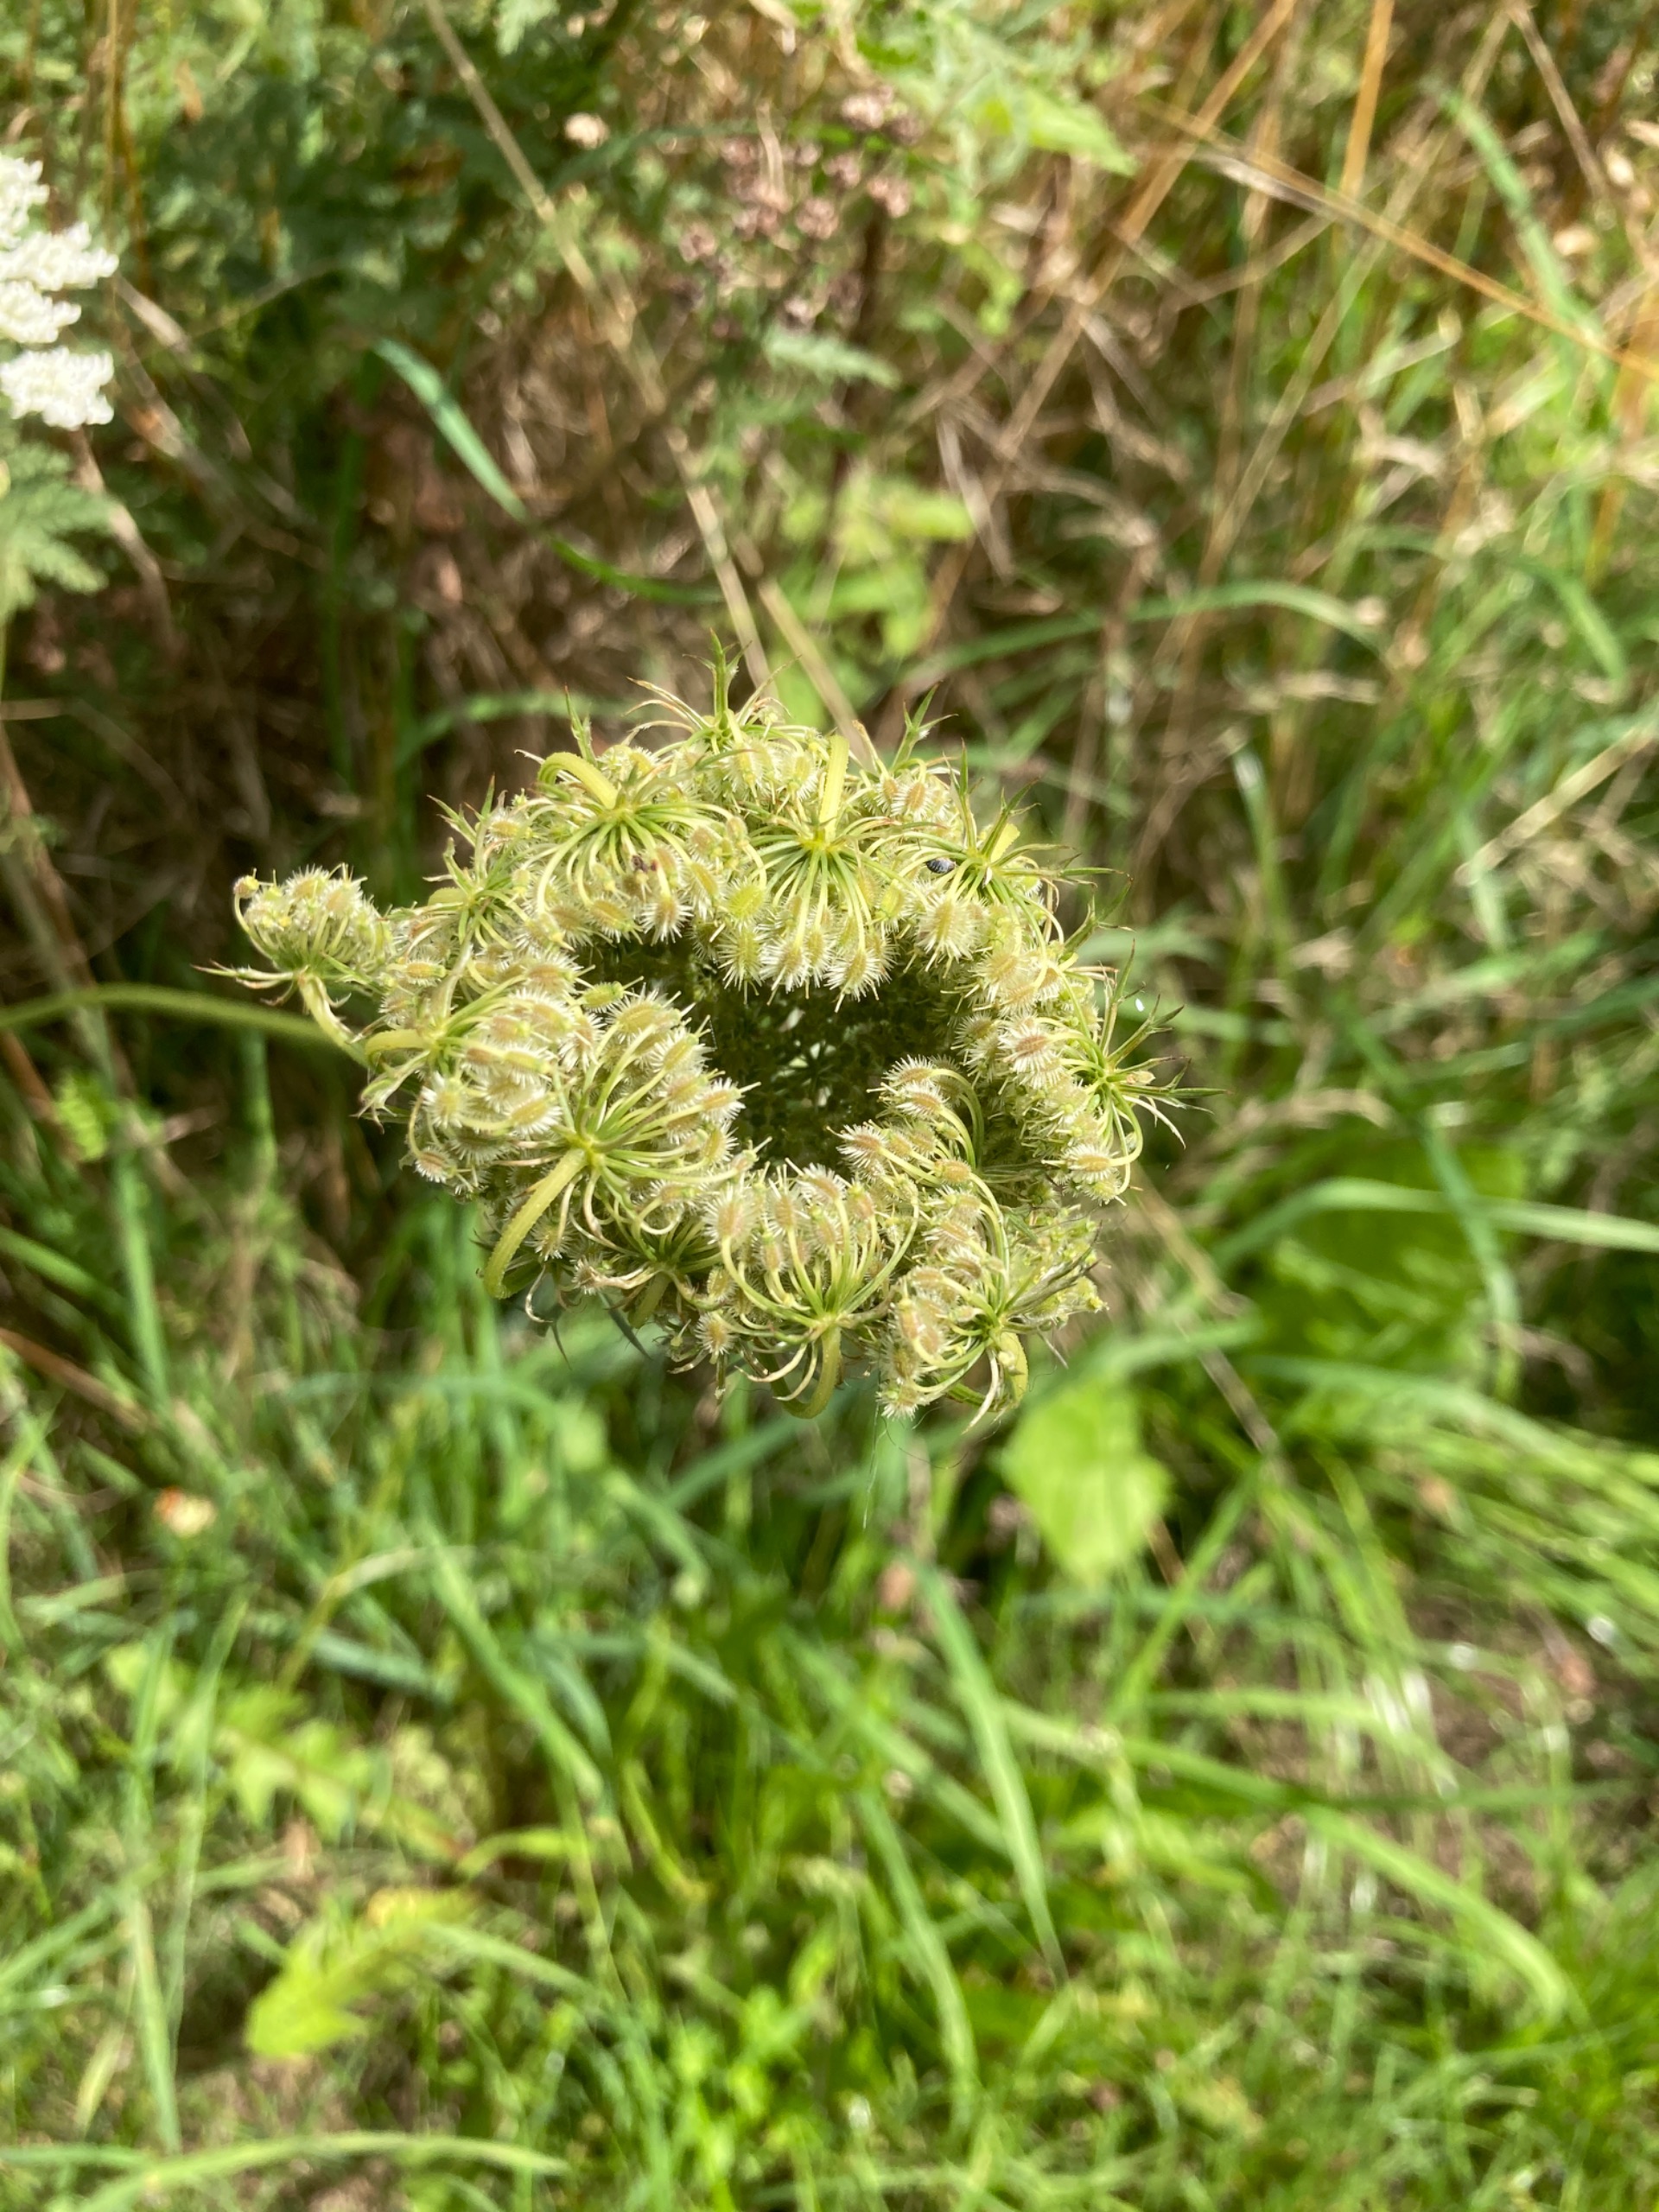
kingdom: Plantae
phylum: Tracheophyta
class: Magnoliopsida
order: Apiales
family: Apiaceae
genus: Daucus
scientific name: Daucus carota
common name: Gulerod
